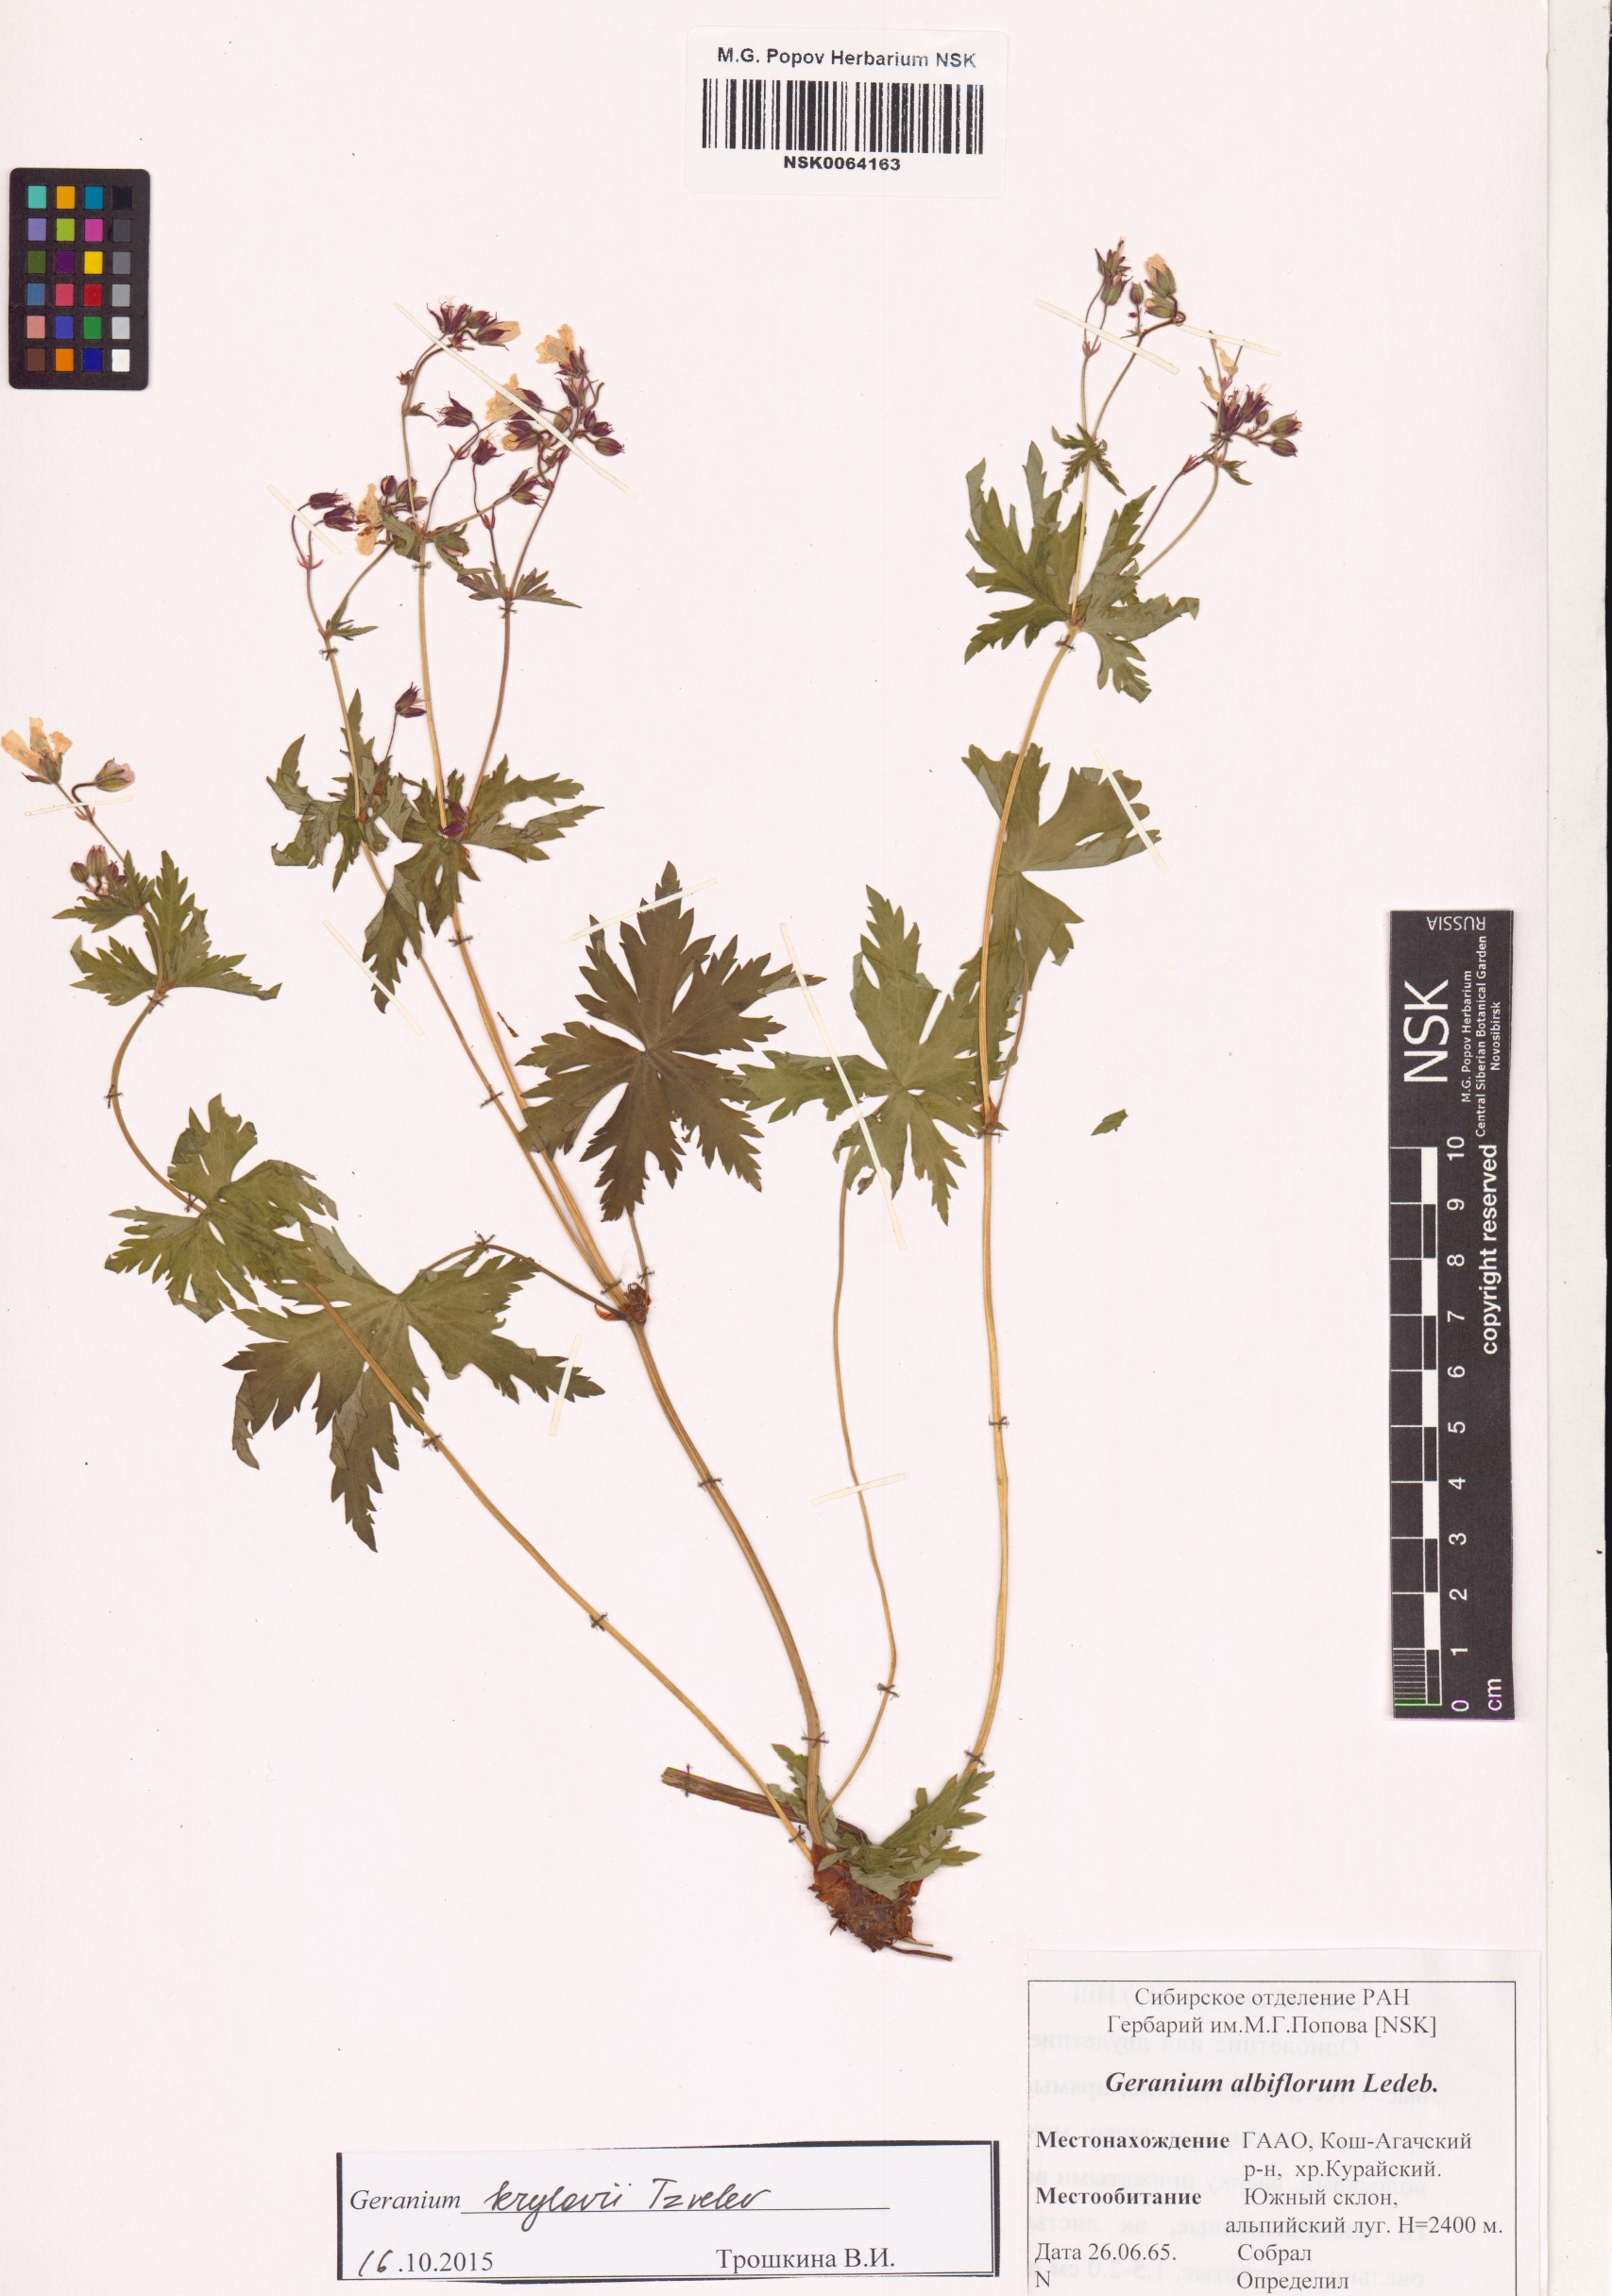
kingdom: Plantae
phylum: Tracheophyta
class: Magnoliopsida
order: Geraniales
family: Geraniaceae
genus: Geranium
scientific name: Geranium sylvaticum
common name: Wood crane's-bill
